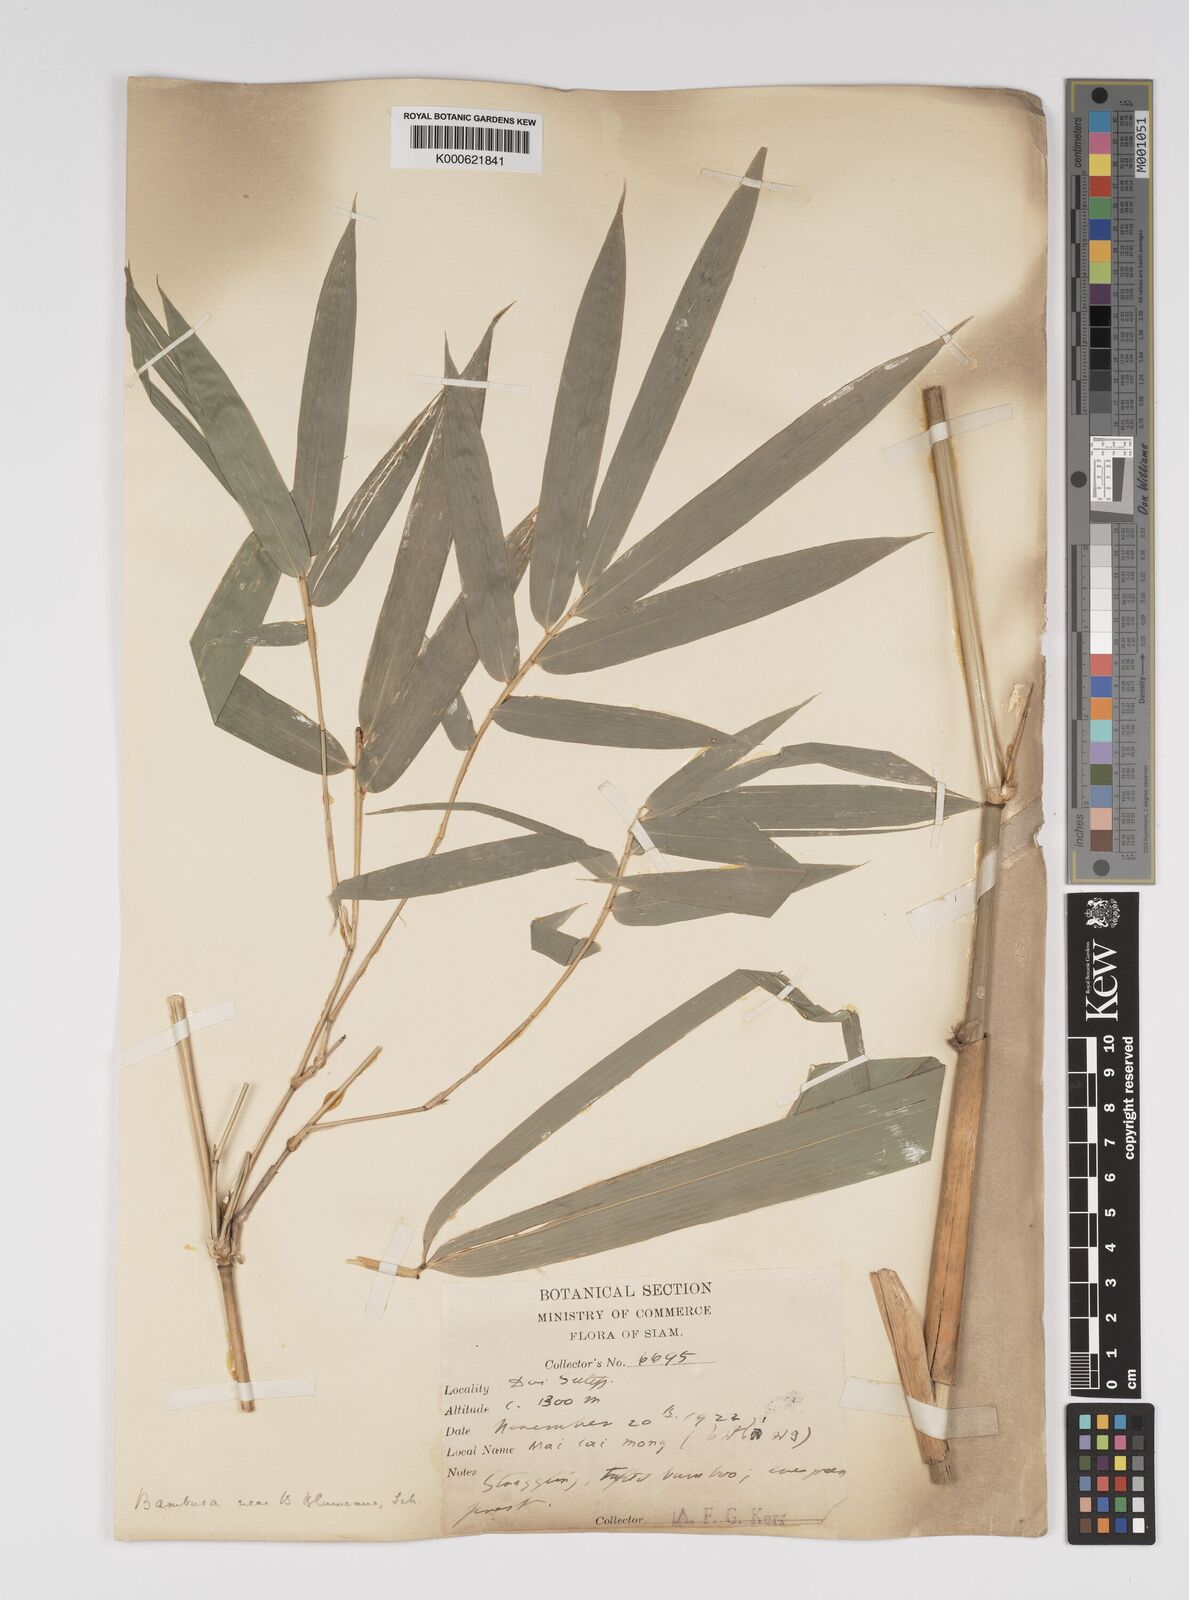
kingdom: Plantae
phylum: Tracheophyta
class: Liliopsida
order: Poales
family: Poaceae
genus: Bambusa
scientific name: Bambusa sesquiflora
